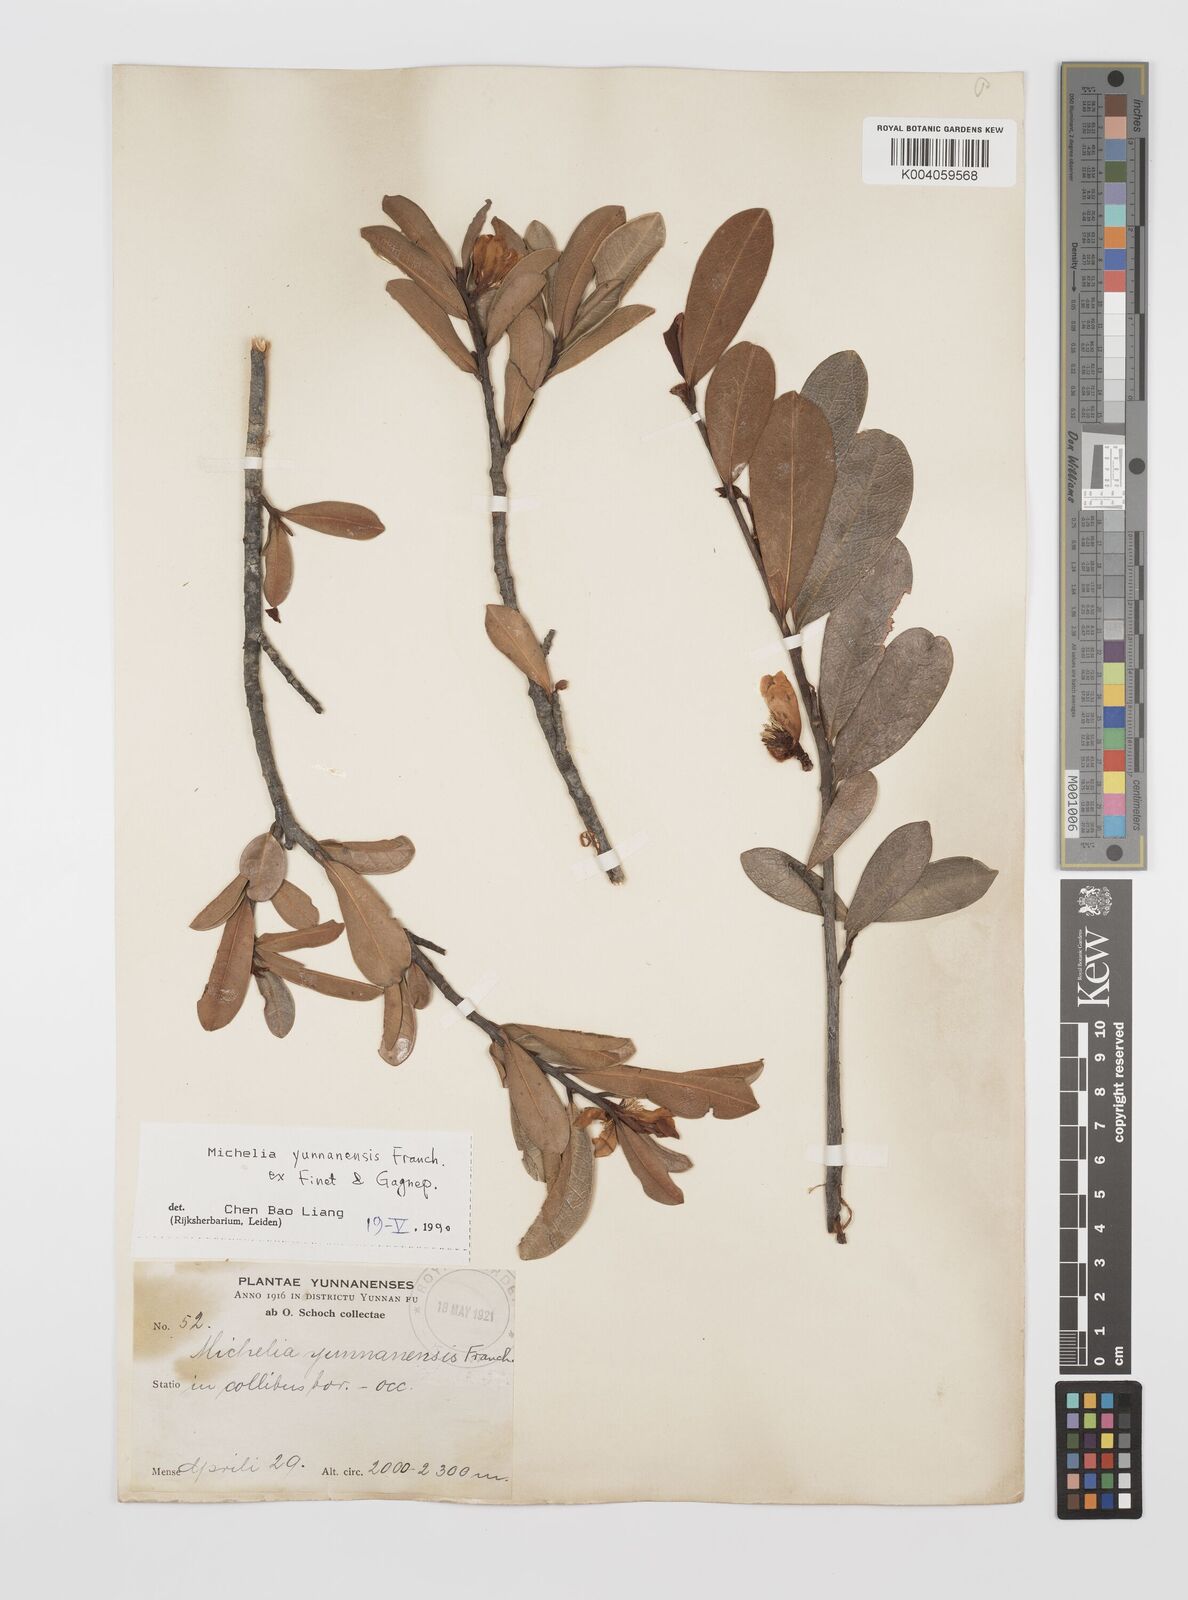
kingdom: Plantae
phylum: Tracheophyta
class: Magnoliopsida
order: Magnoliales
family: Magnoliaceae
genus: Magnolia
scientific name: Magnolia laevifolia
